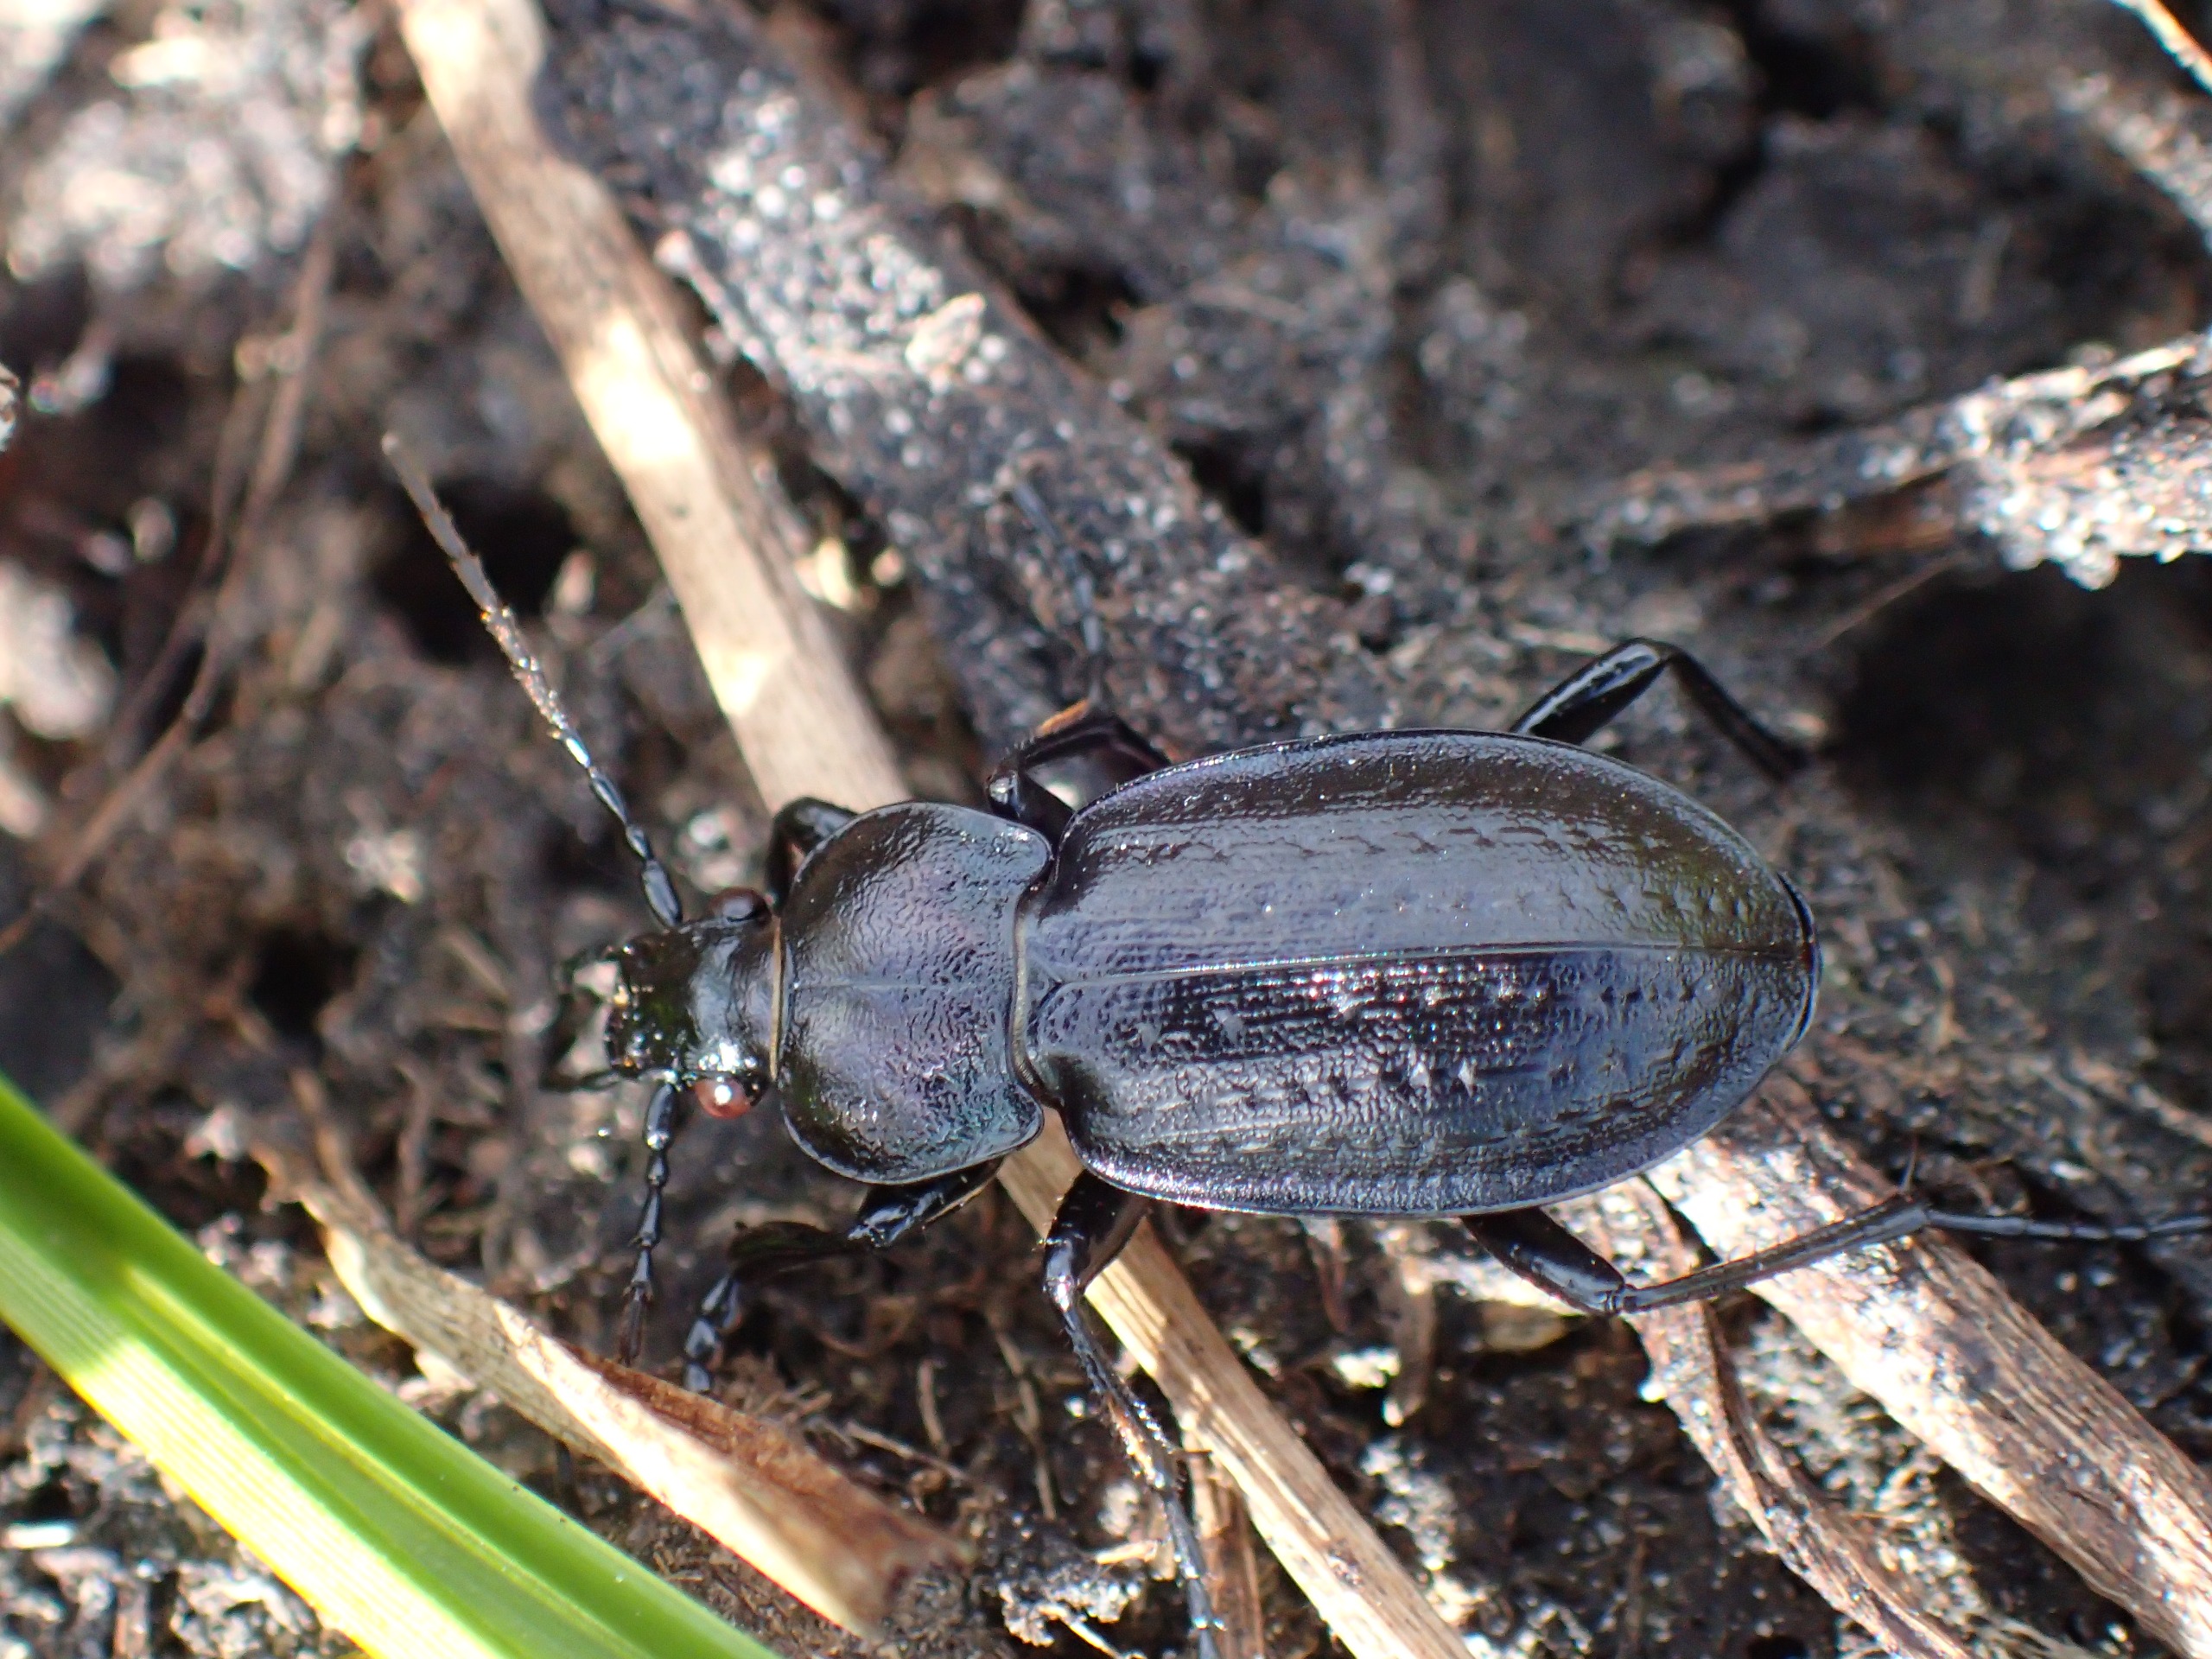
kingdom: Animalia
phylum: Arthropoda
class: Insecta
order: Coleoptera
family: Carabidae
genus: Carabus
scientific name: Carabus arvensis
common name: Lyngløber
